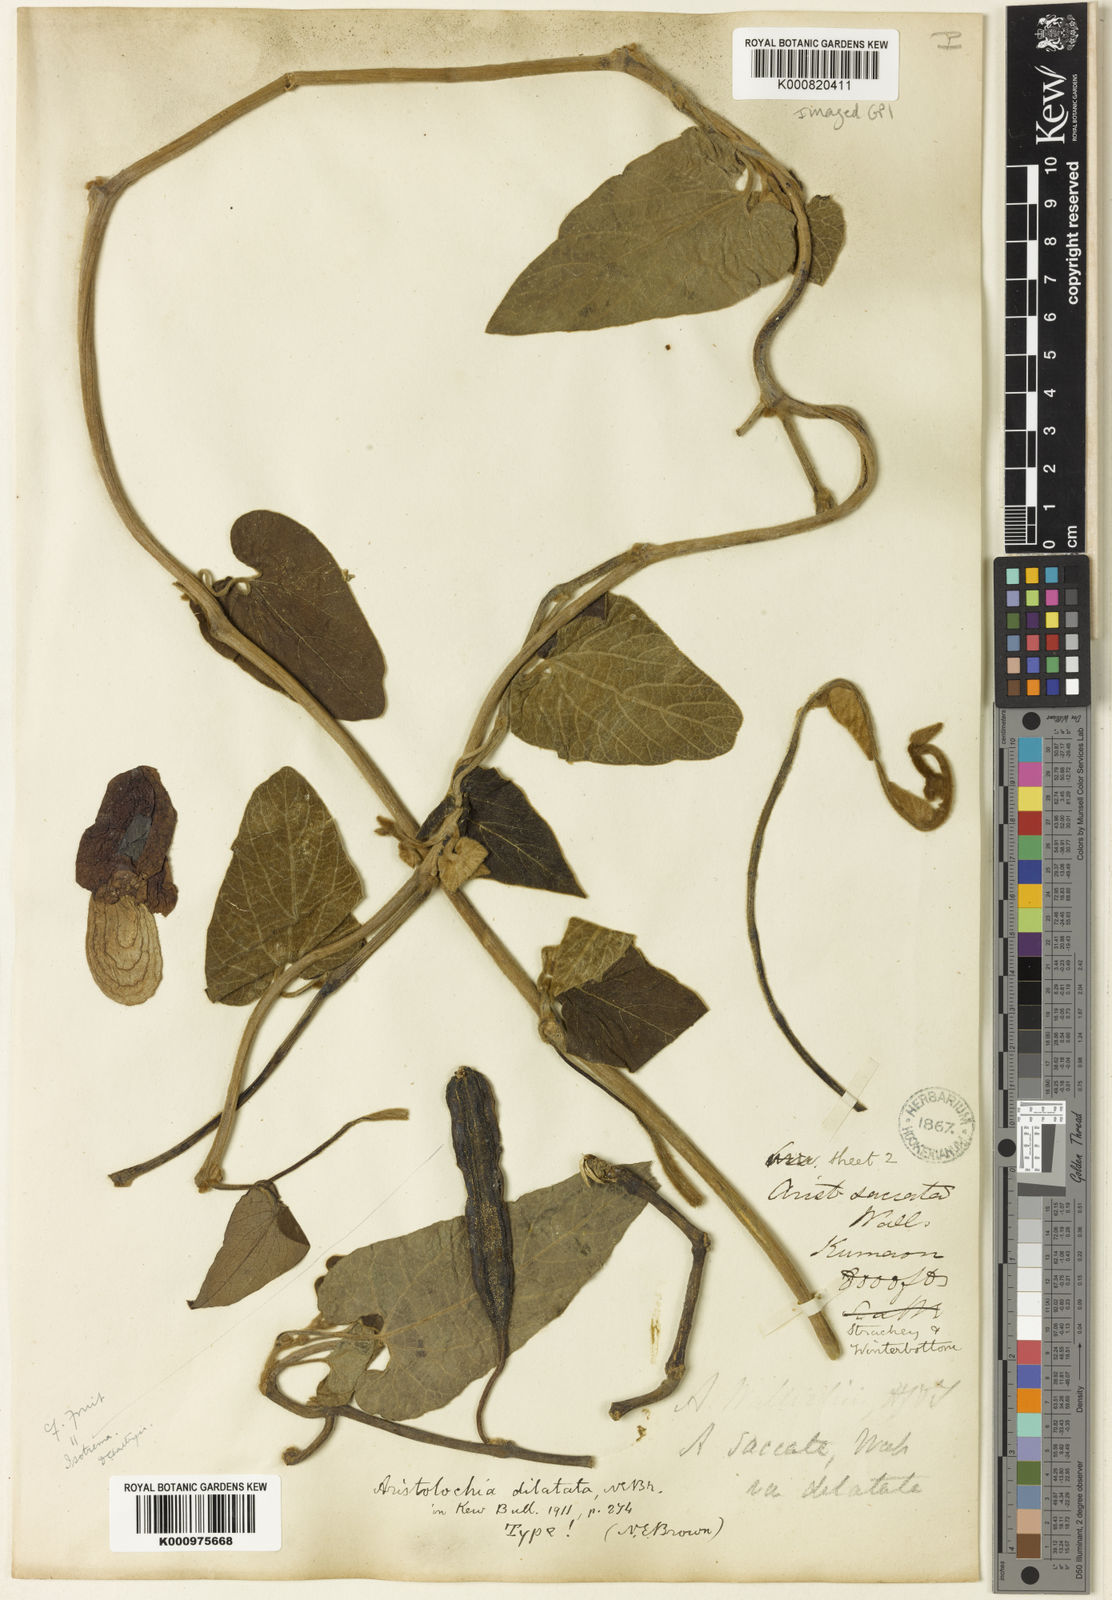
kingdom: Plantae
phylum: Tracheophyta
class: Magnoliopsida
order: Piperales
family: Aristolochiaceae
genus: Isotrema
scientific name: Isotrema
